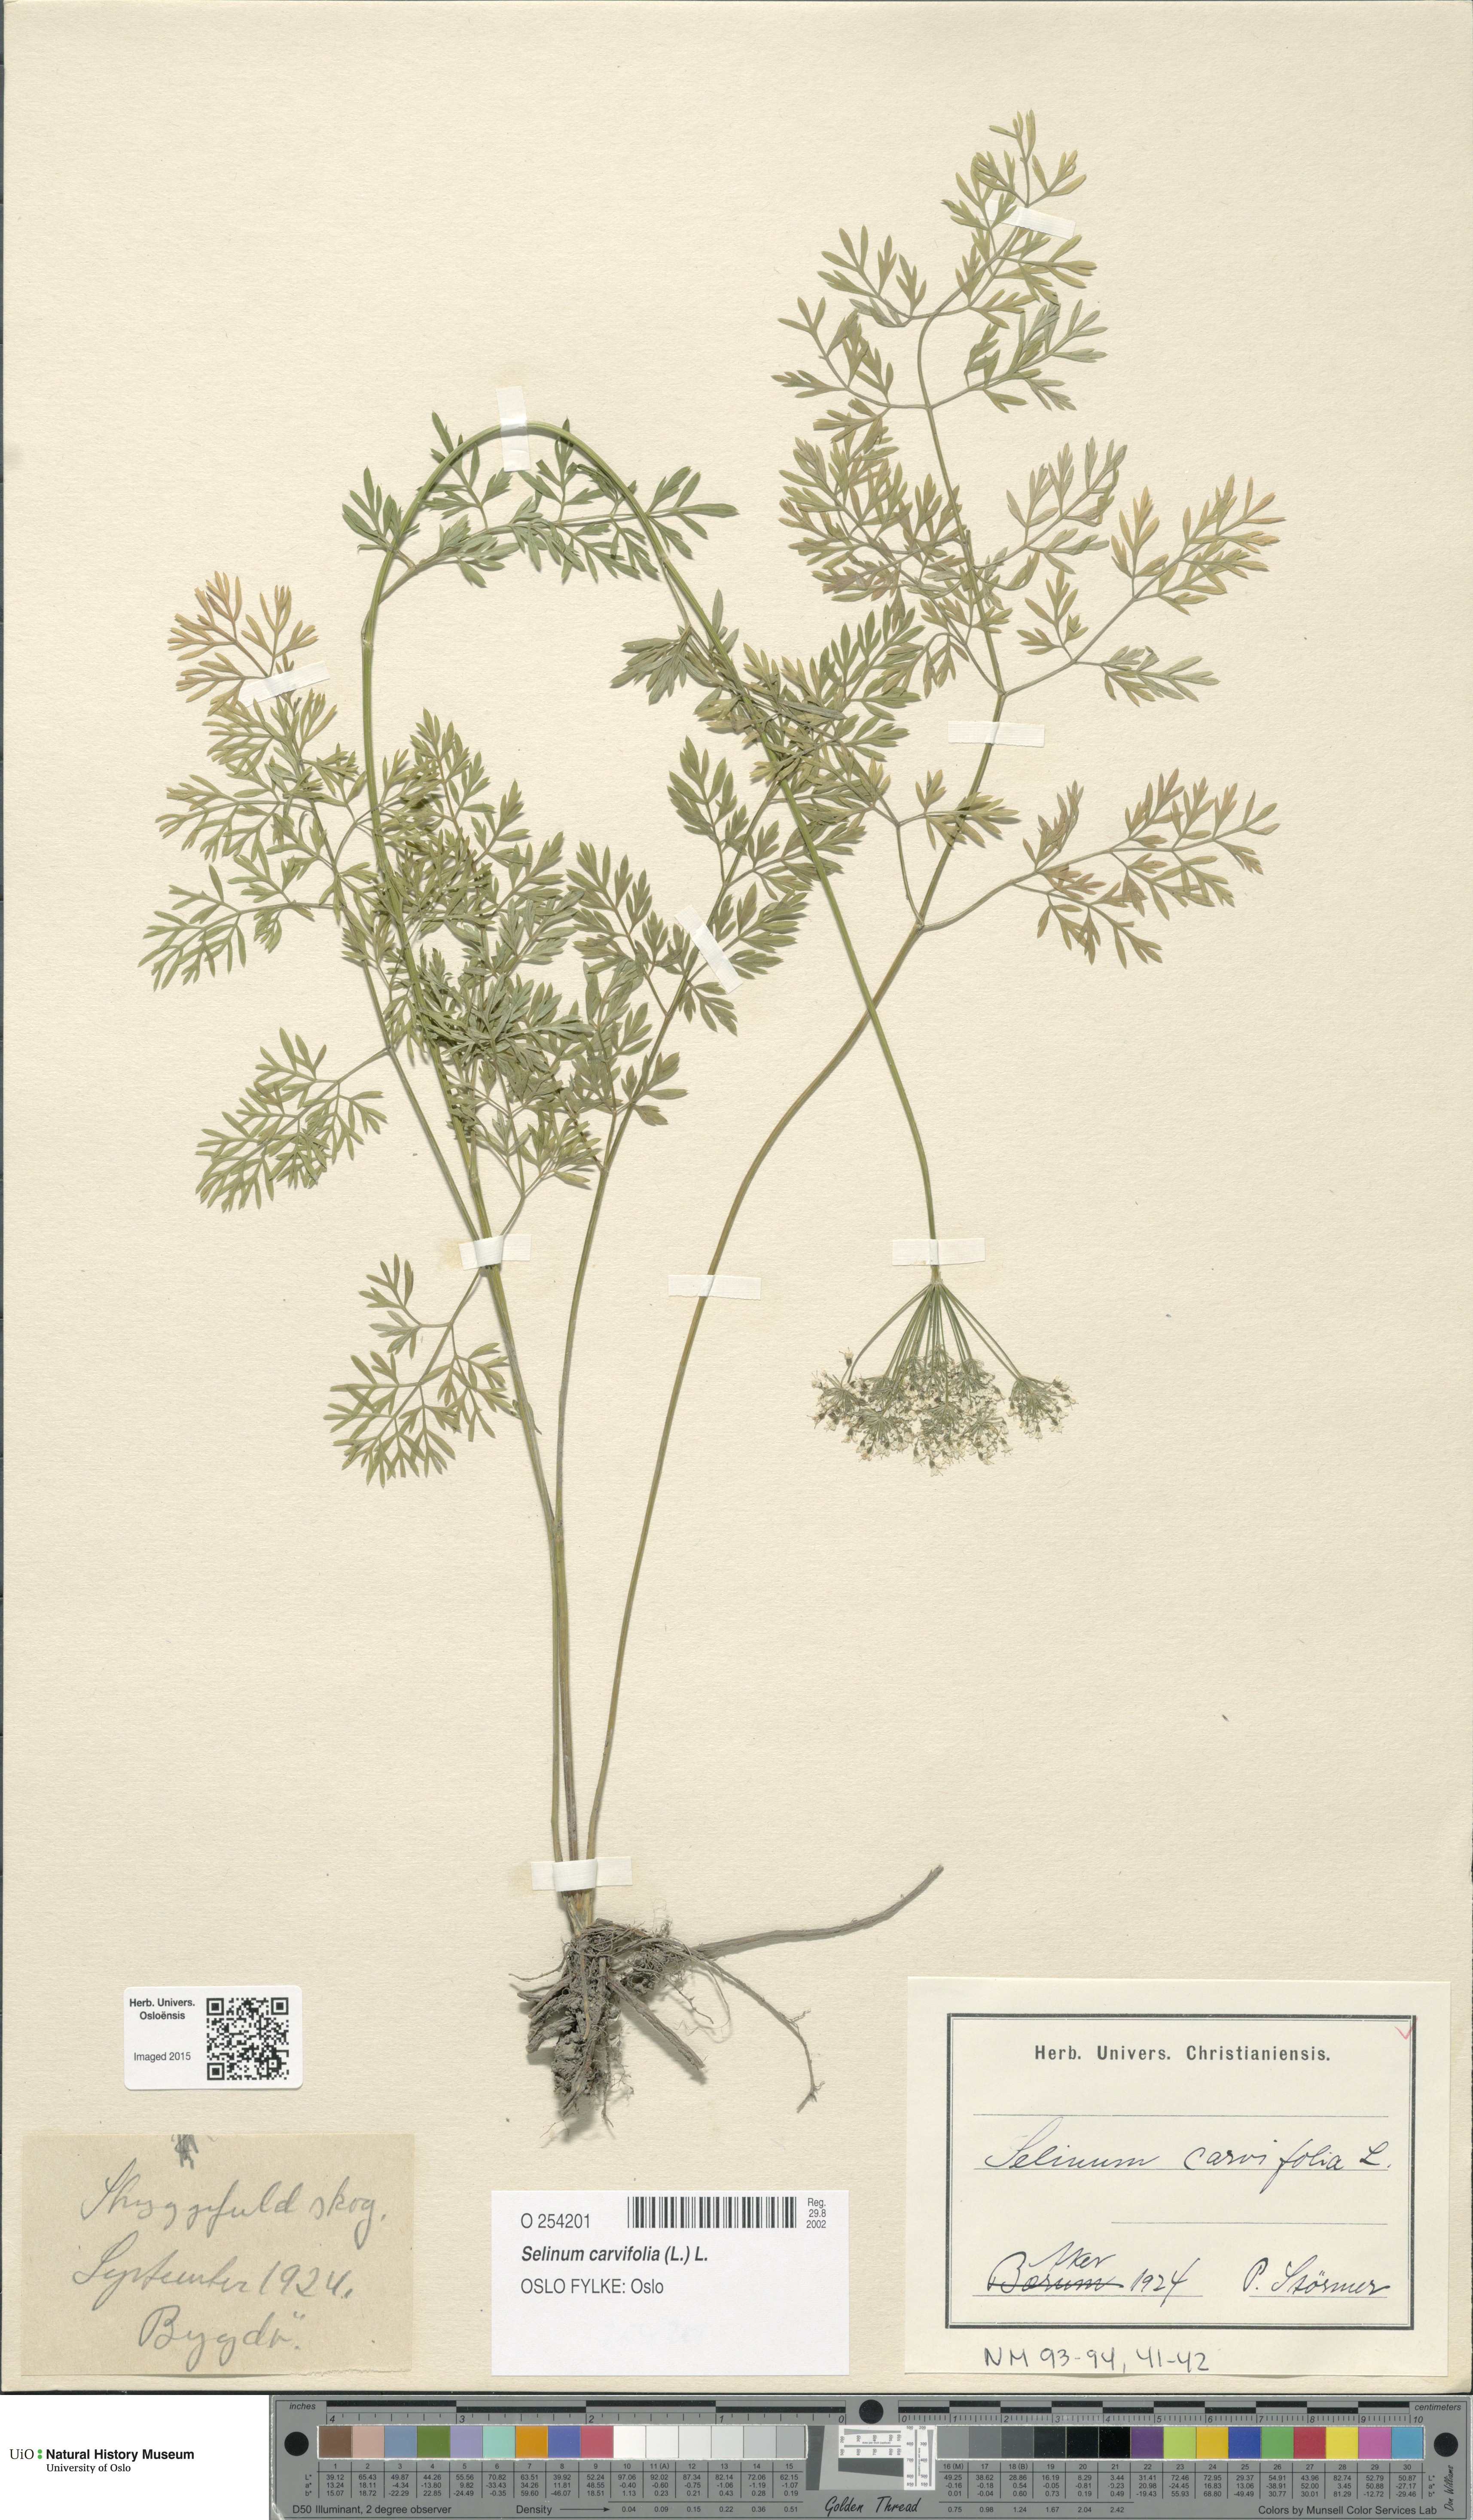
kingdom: Plantae
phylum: Tracheophyta
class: Magnoliopsida
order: Apiales
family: Apiaceae
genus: Selinum
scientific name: Selinum carvifolia
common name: Cambridge milk-parsley
